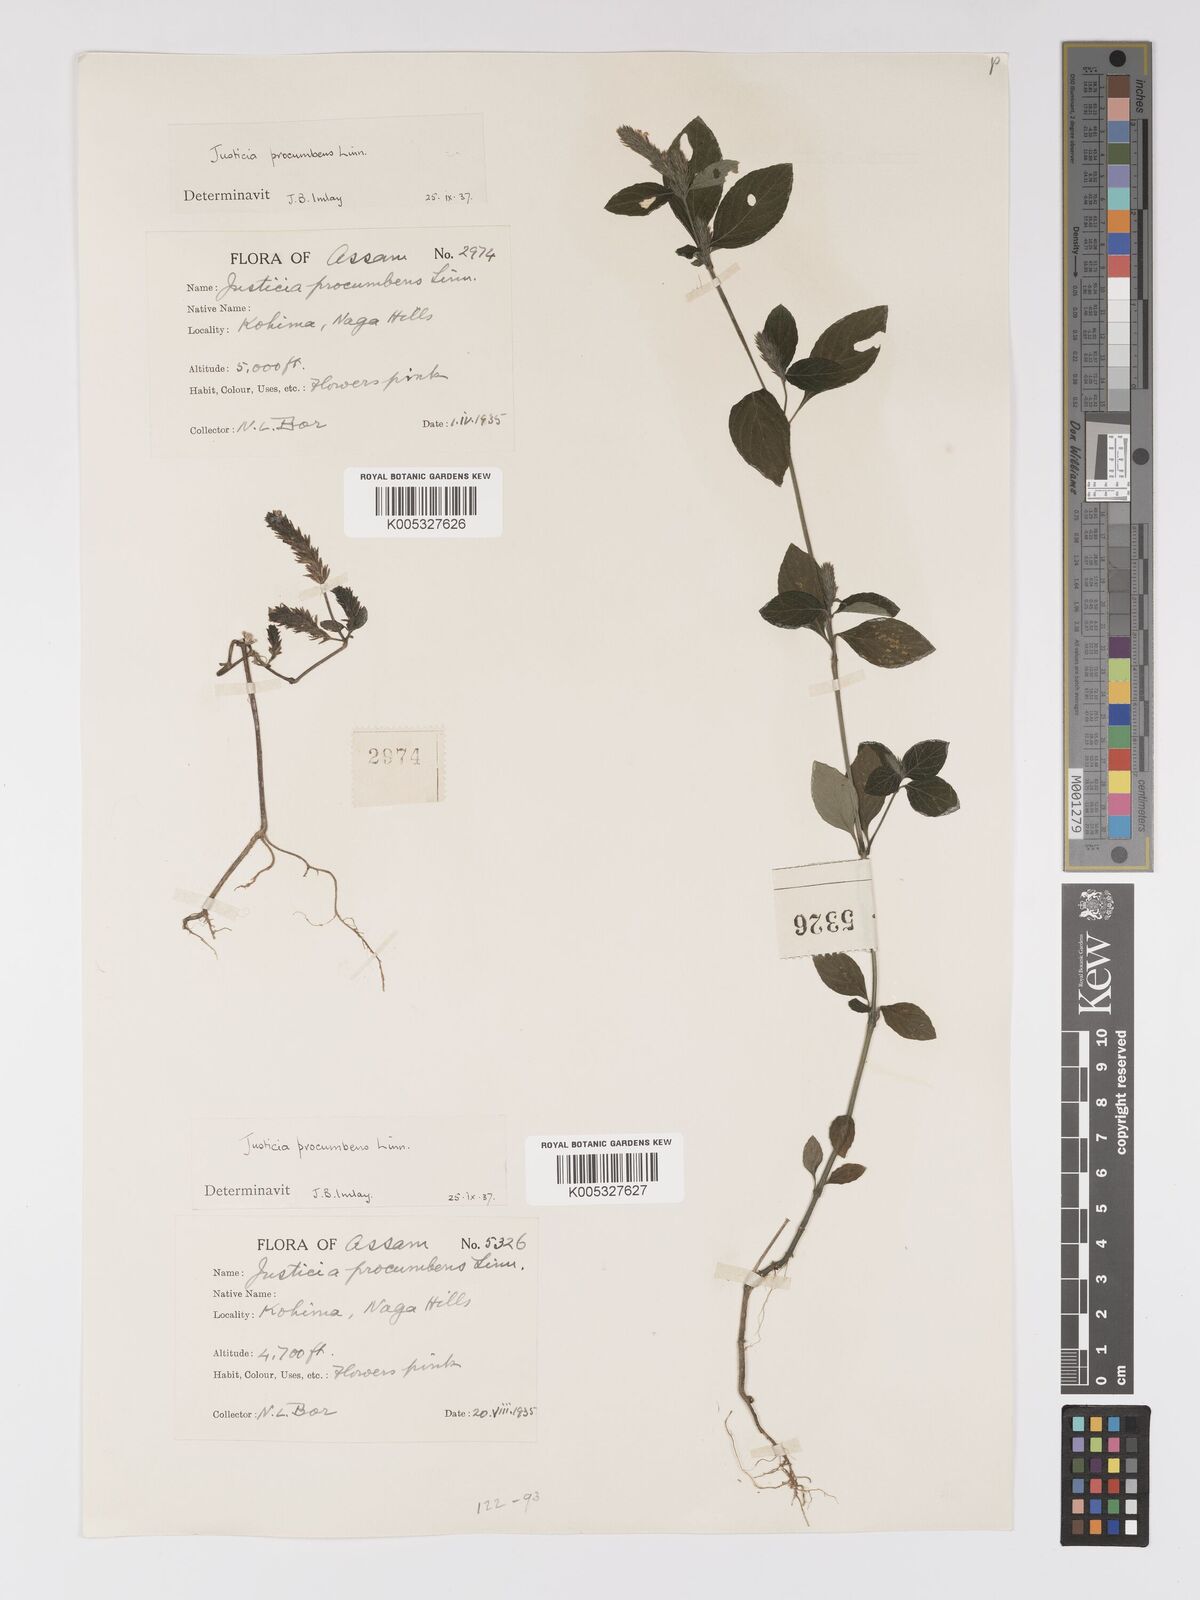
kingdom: Plantae
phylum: Tracheophyta
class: Magnoliopsida
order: Lamiales
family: Acanthaceae
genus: Rostellularia
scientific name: Rostellularia latispica
